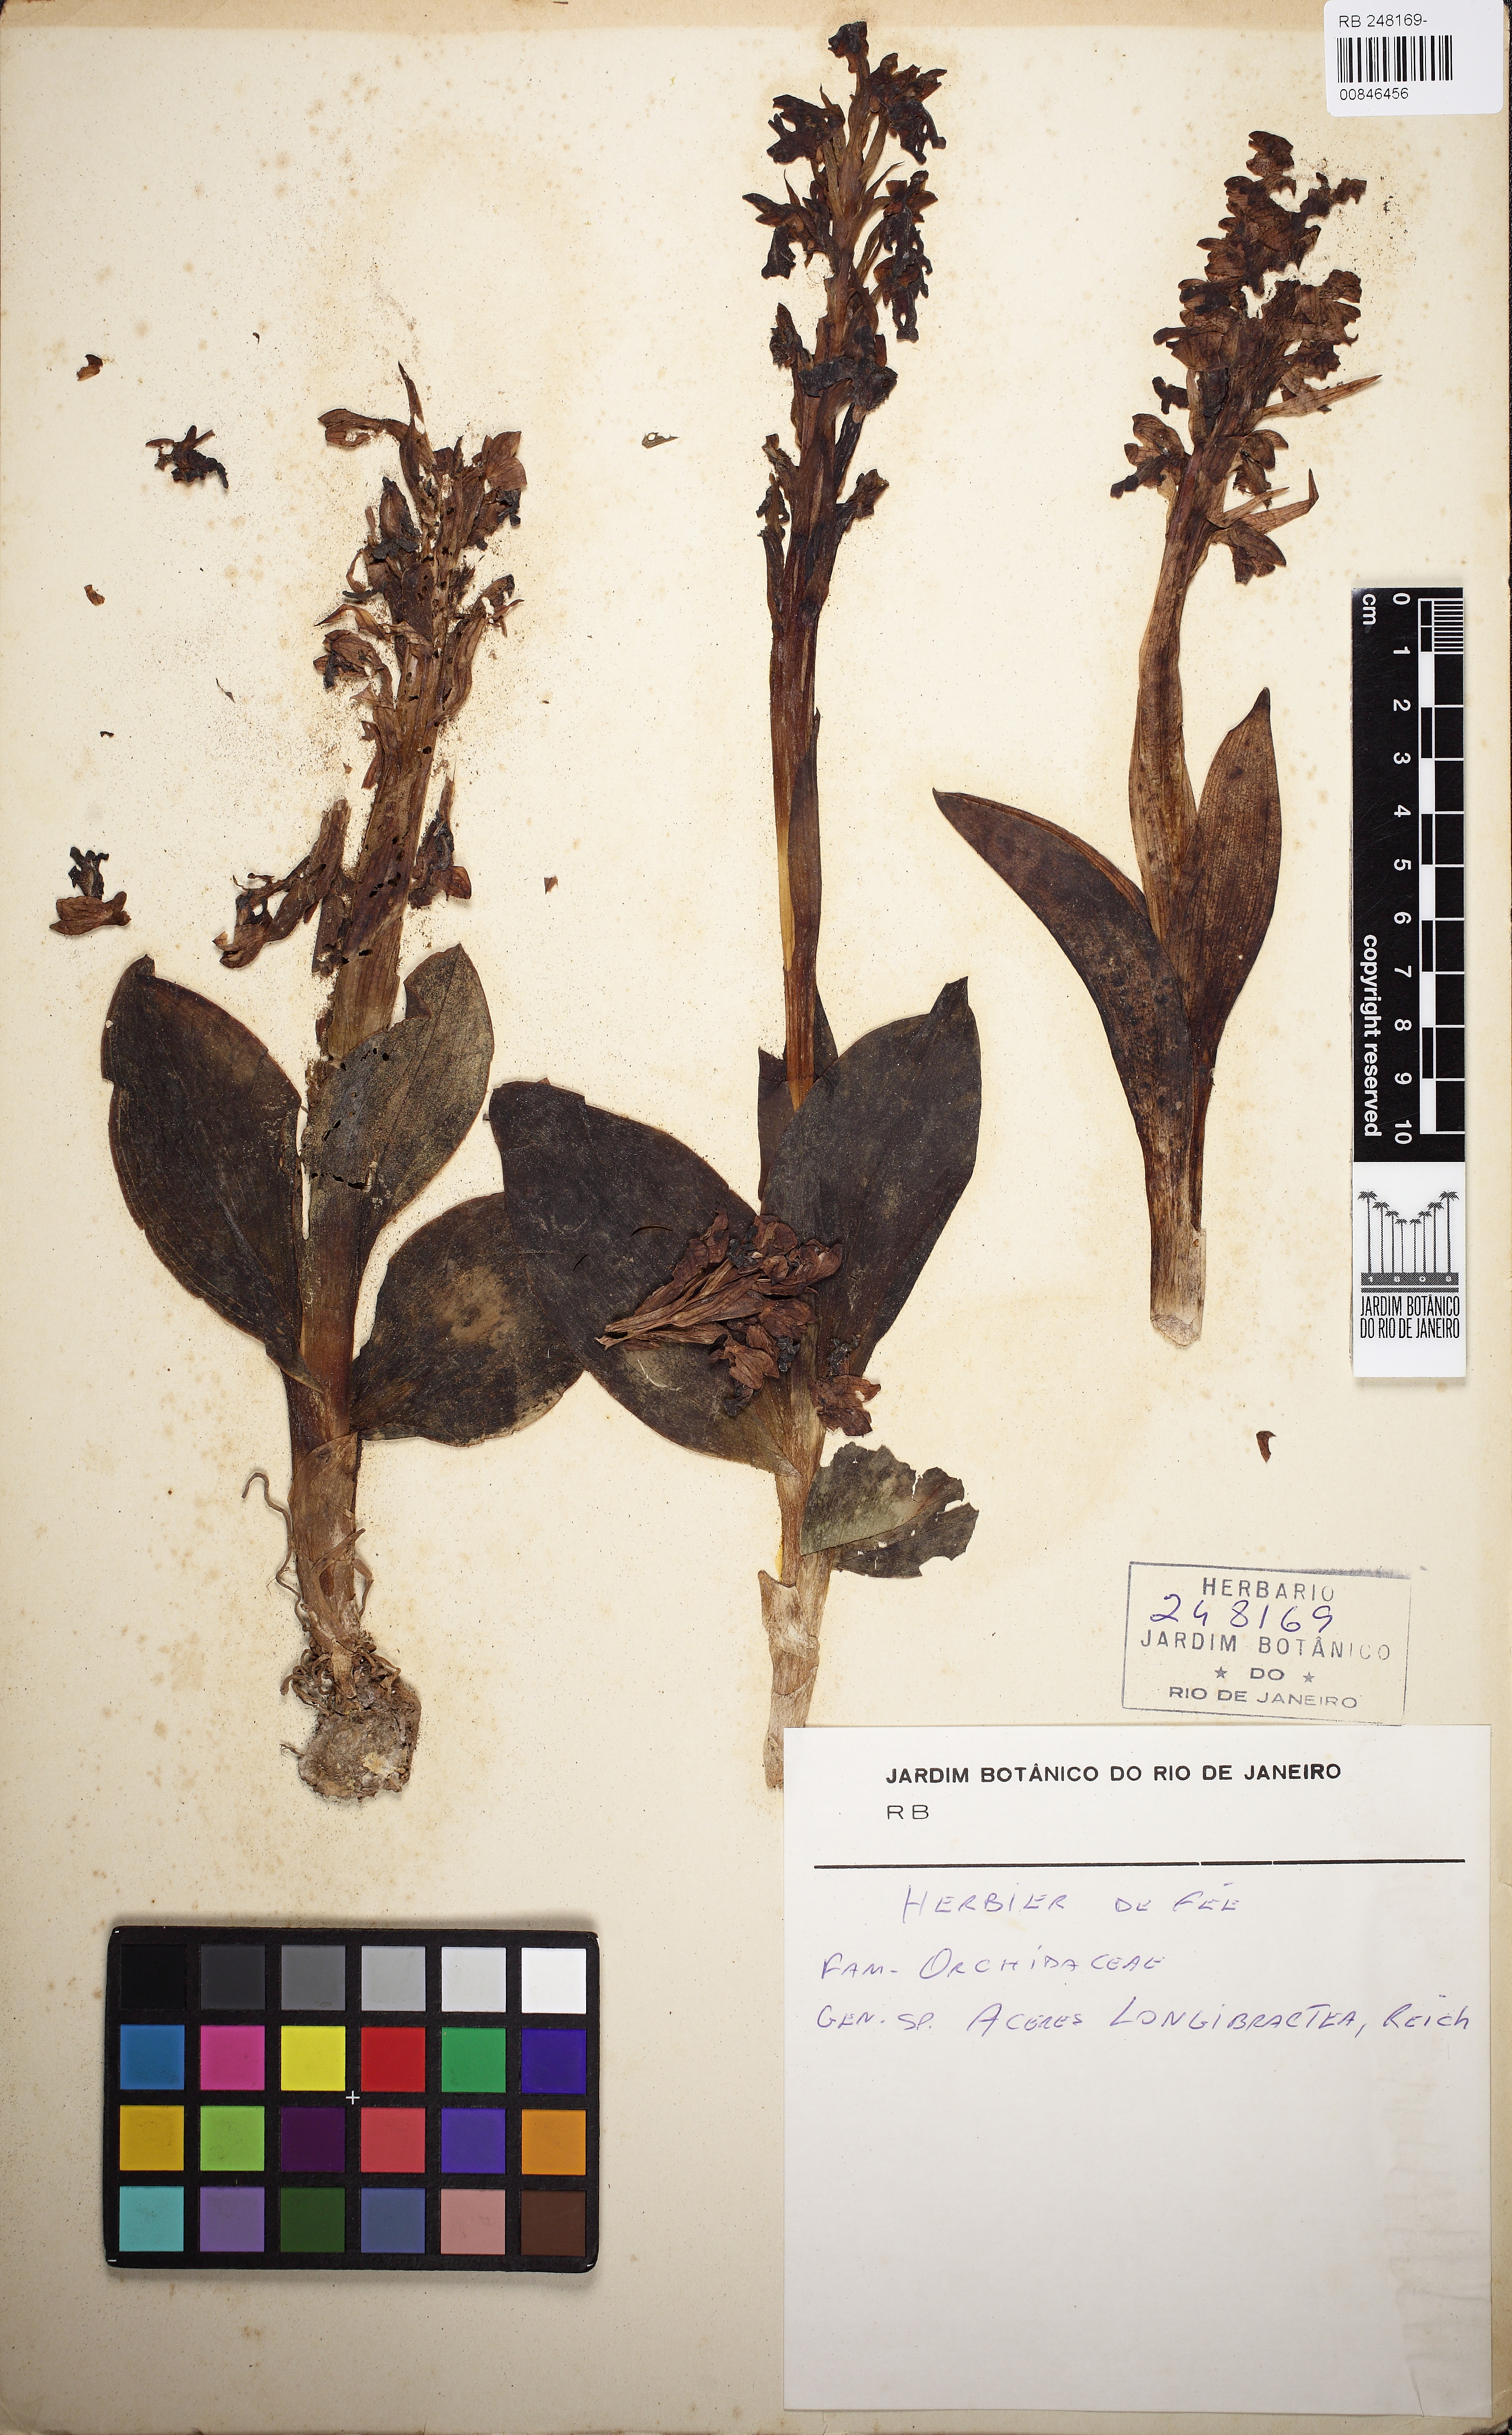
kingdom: Plantae
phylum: Tracheophyta
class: Liliopsida
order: Asparagales
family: Orchidaceae
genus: Himantoglossum
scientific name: Himantoglossum robertianum
